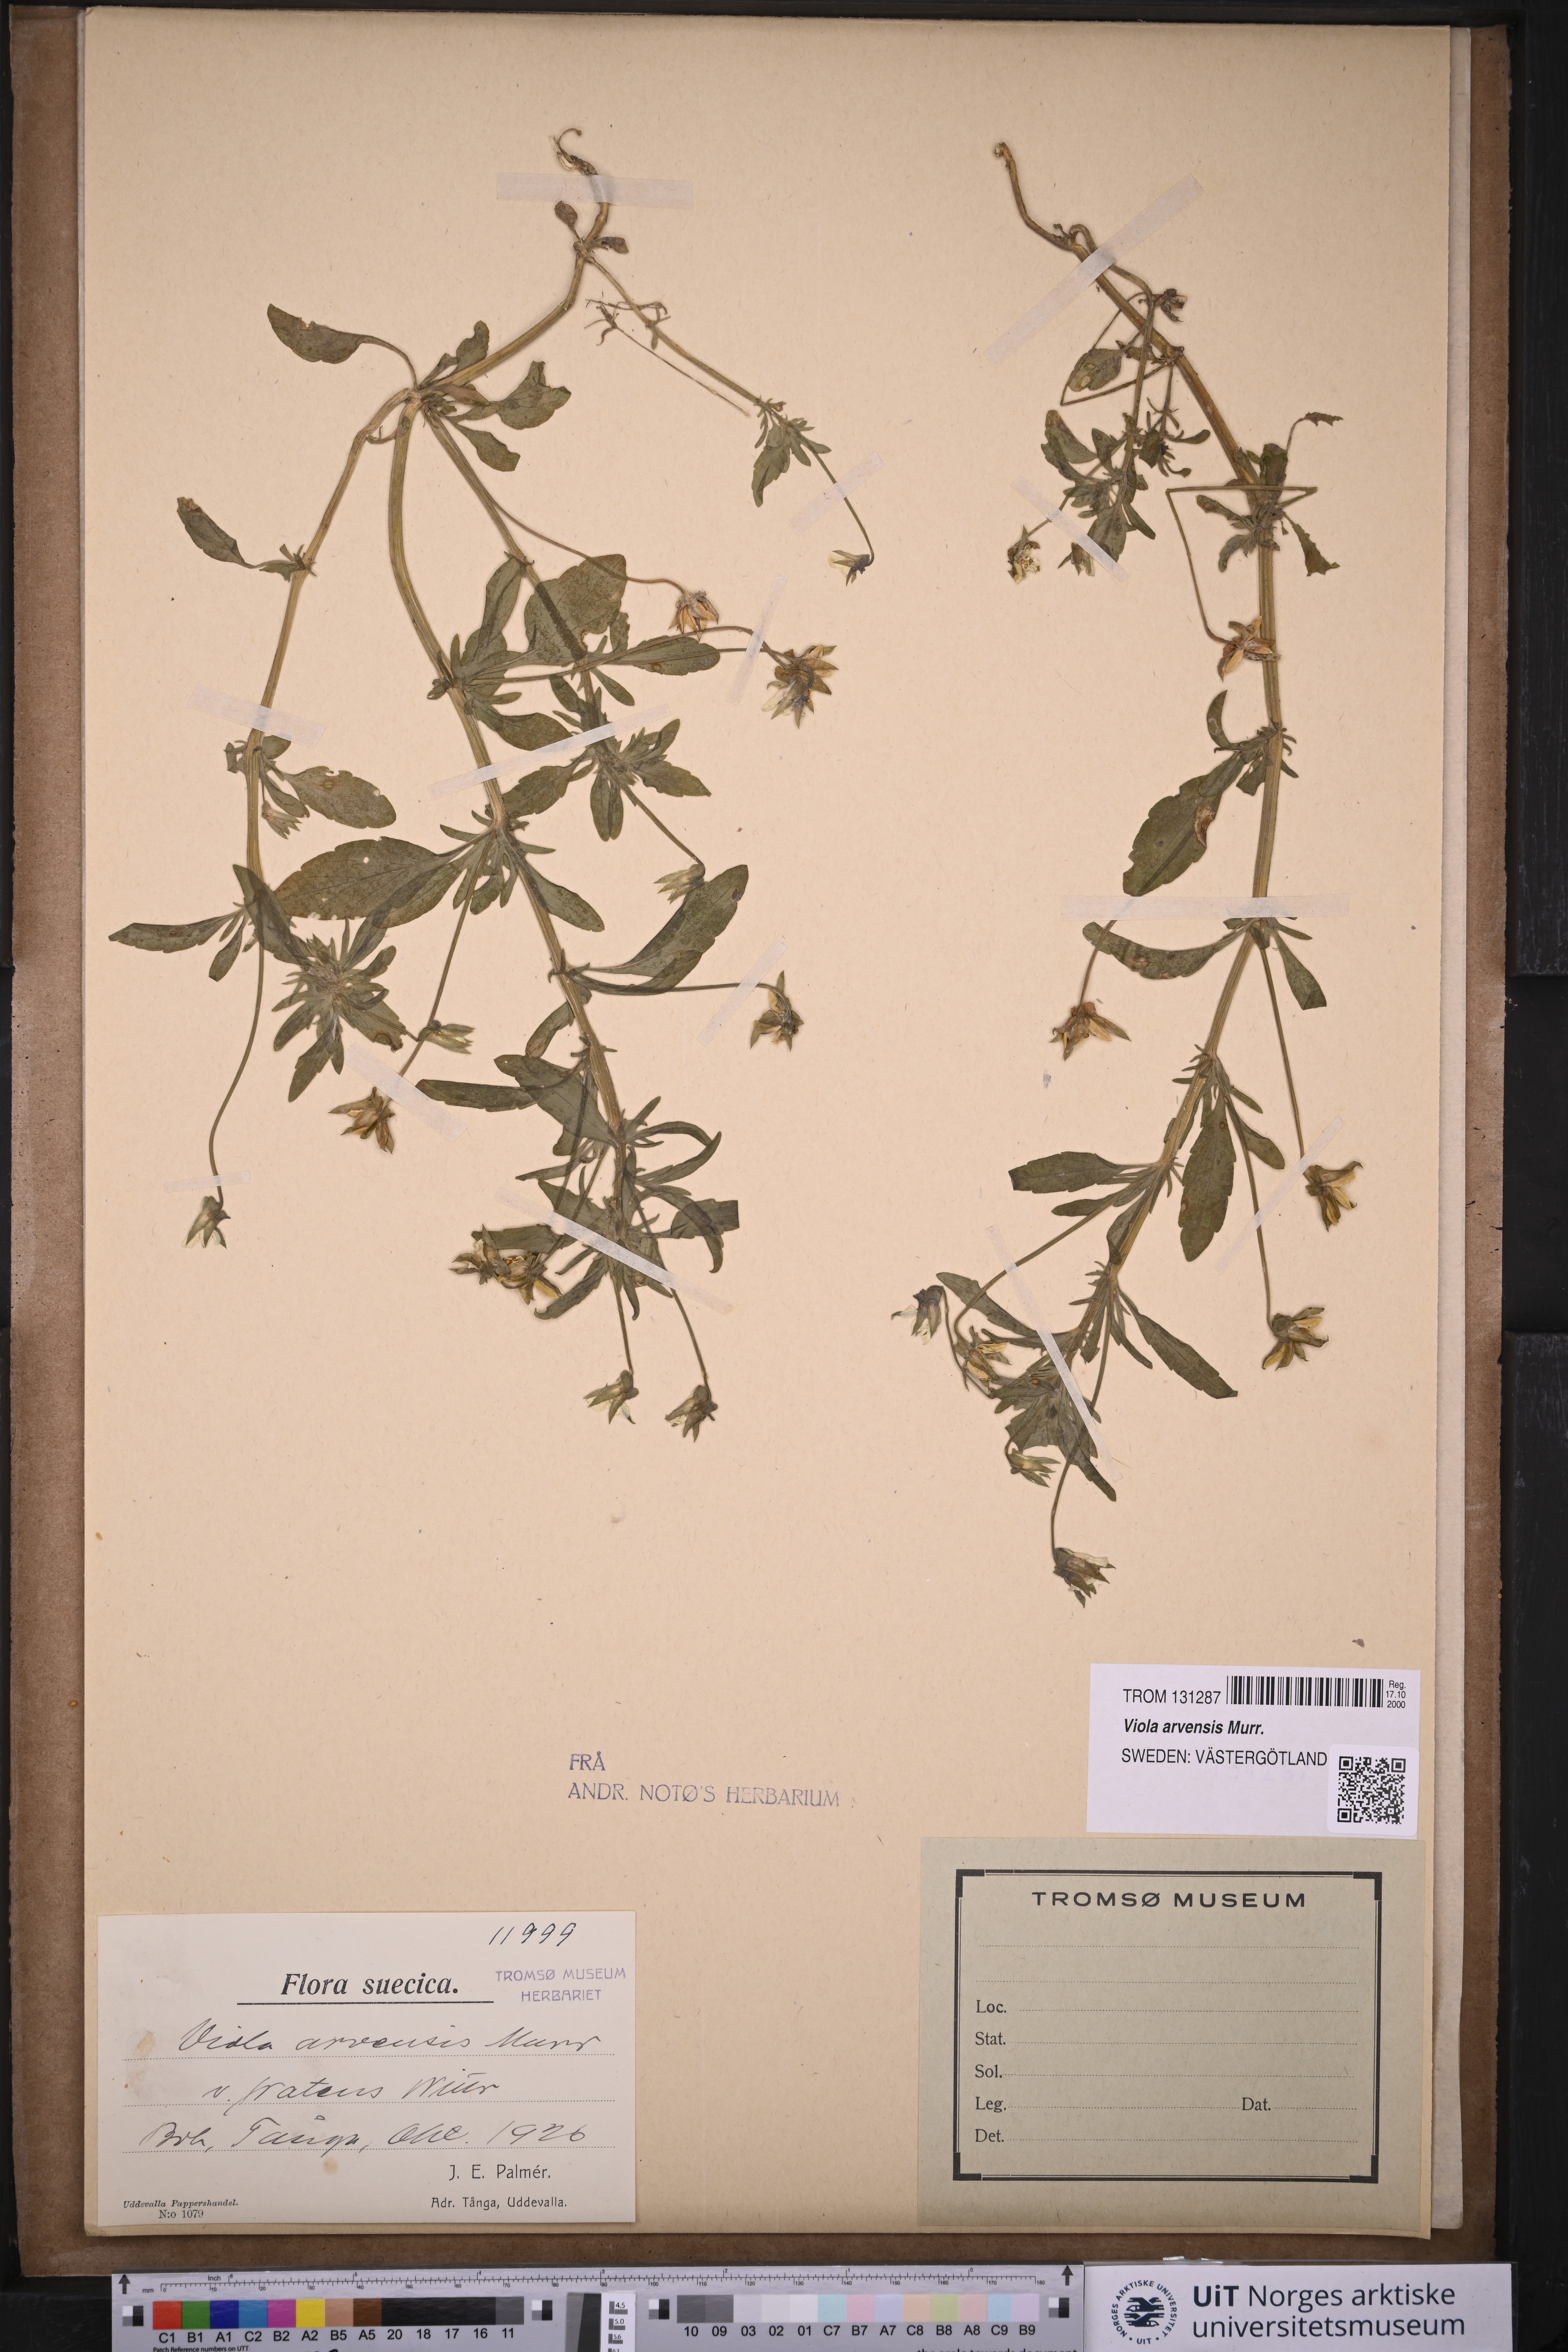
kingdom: Plantae
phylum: Tracheophyta
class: Magnoliopsida
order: Malpighiales
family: Violaceae
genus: Viola
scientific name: Viola arvensis
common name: Field pansy
